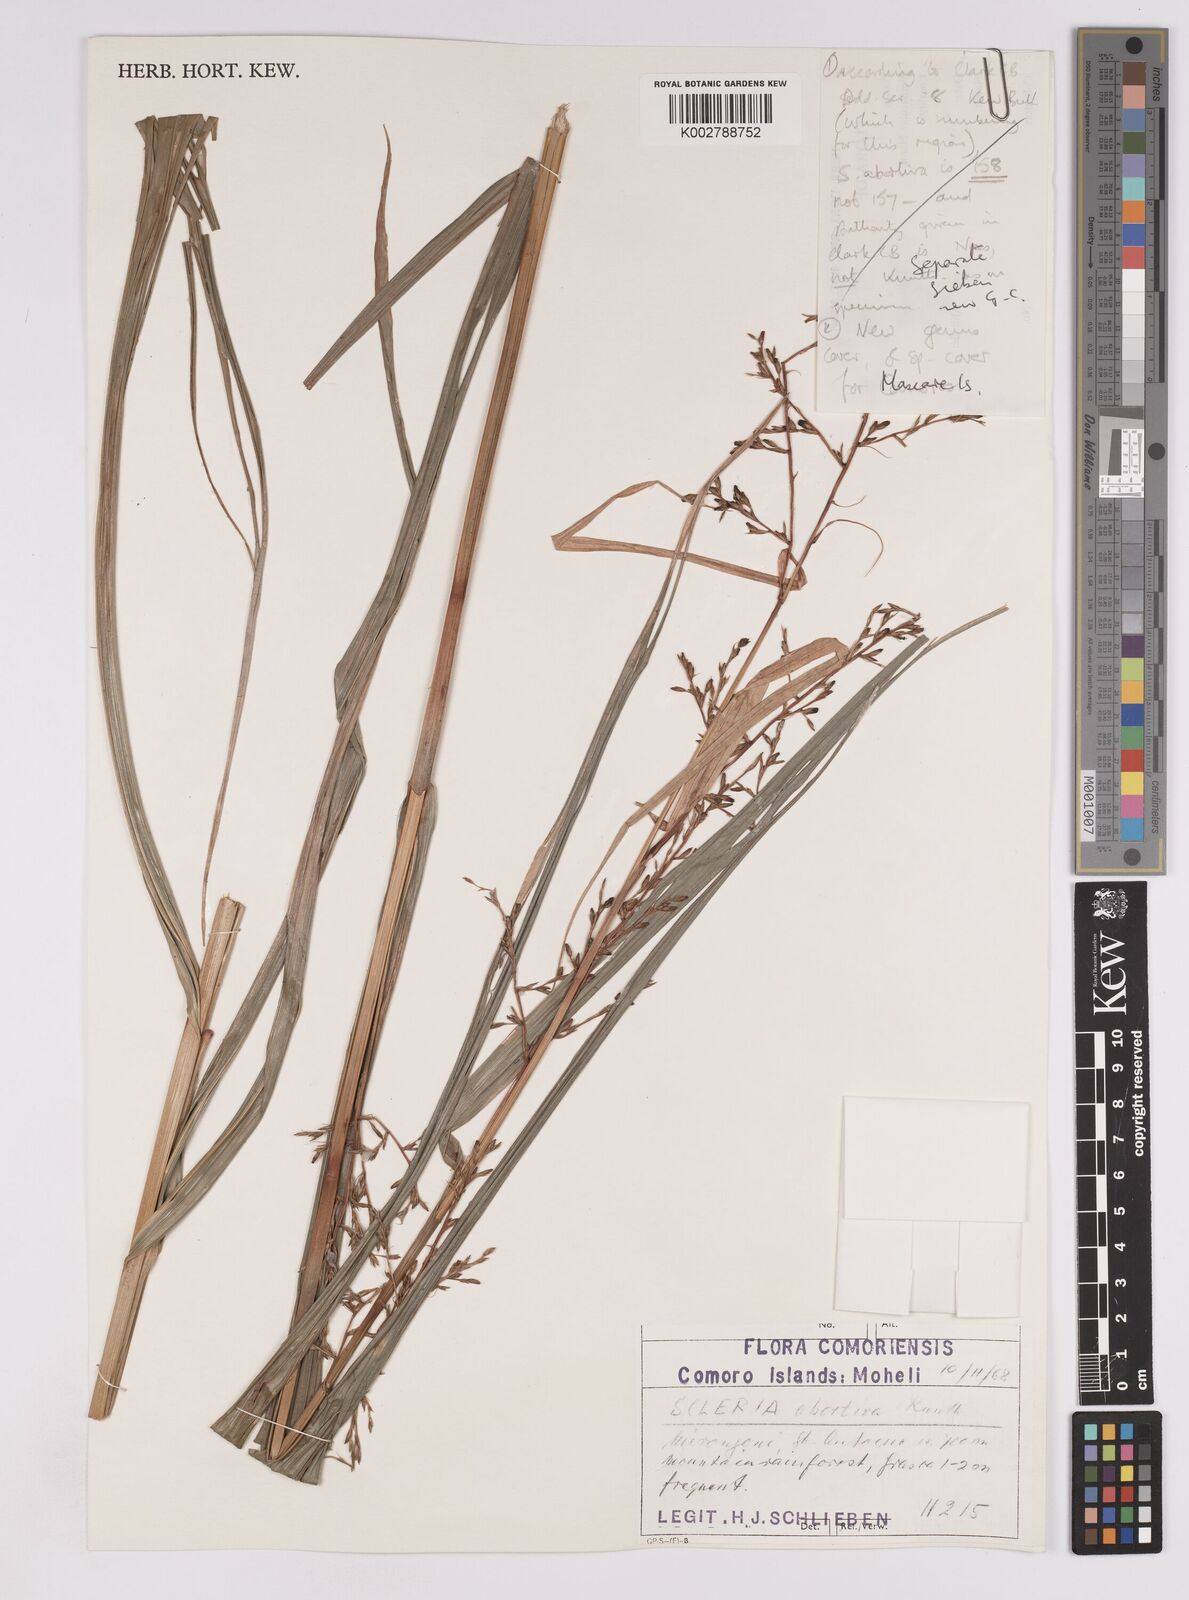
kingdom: Plantae
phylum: Tracheophyta
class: Liliopsida
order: Poales
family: Cyperaceae
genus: Scleria
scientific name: Scleria trialata
